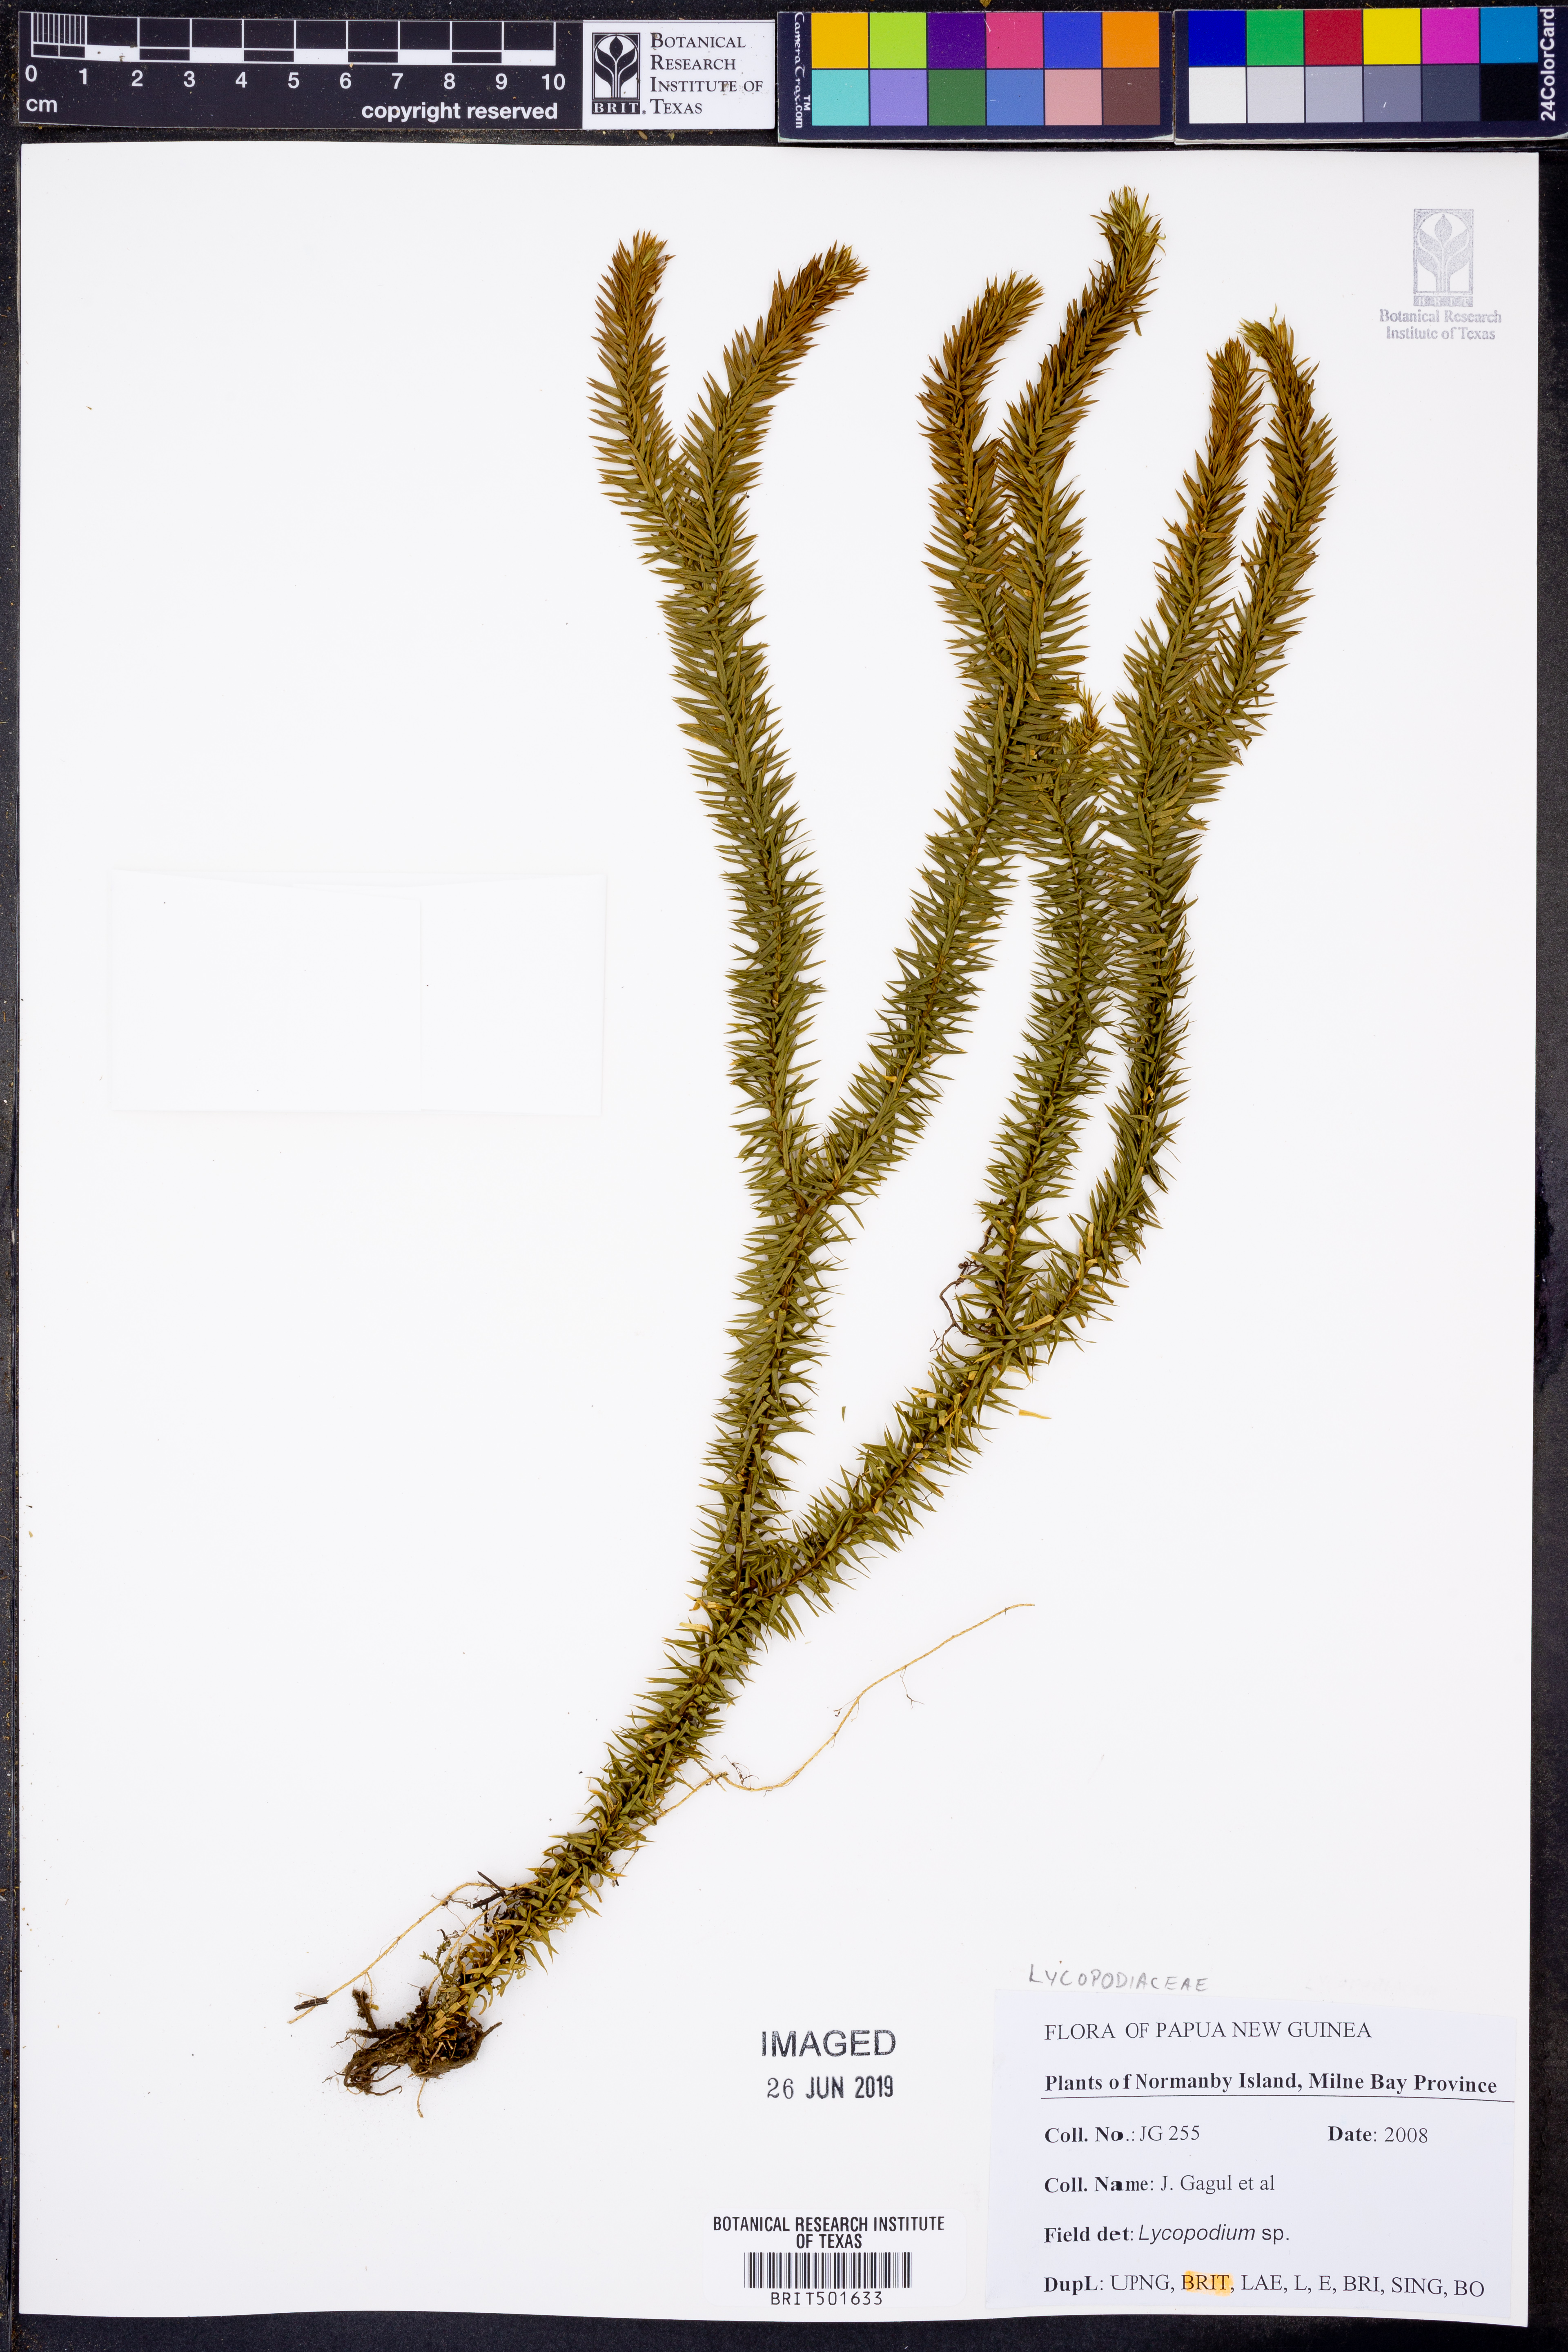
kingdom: Plantae
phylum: Tracheophyta
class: Lycopodiopsida
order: Lycopodiales
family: Lycopodiaceae
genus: Lycopodium
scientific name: Lycopodium
